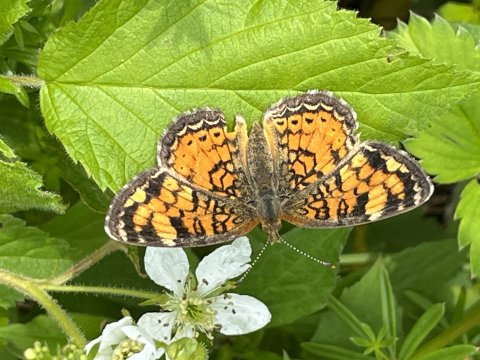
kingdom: Animalia
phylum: Arthropoda
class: Insecta
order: Lepidoptera
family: Nymphalidae
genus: Phyciodes
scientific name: Phyciodes
